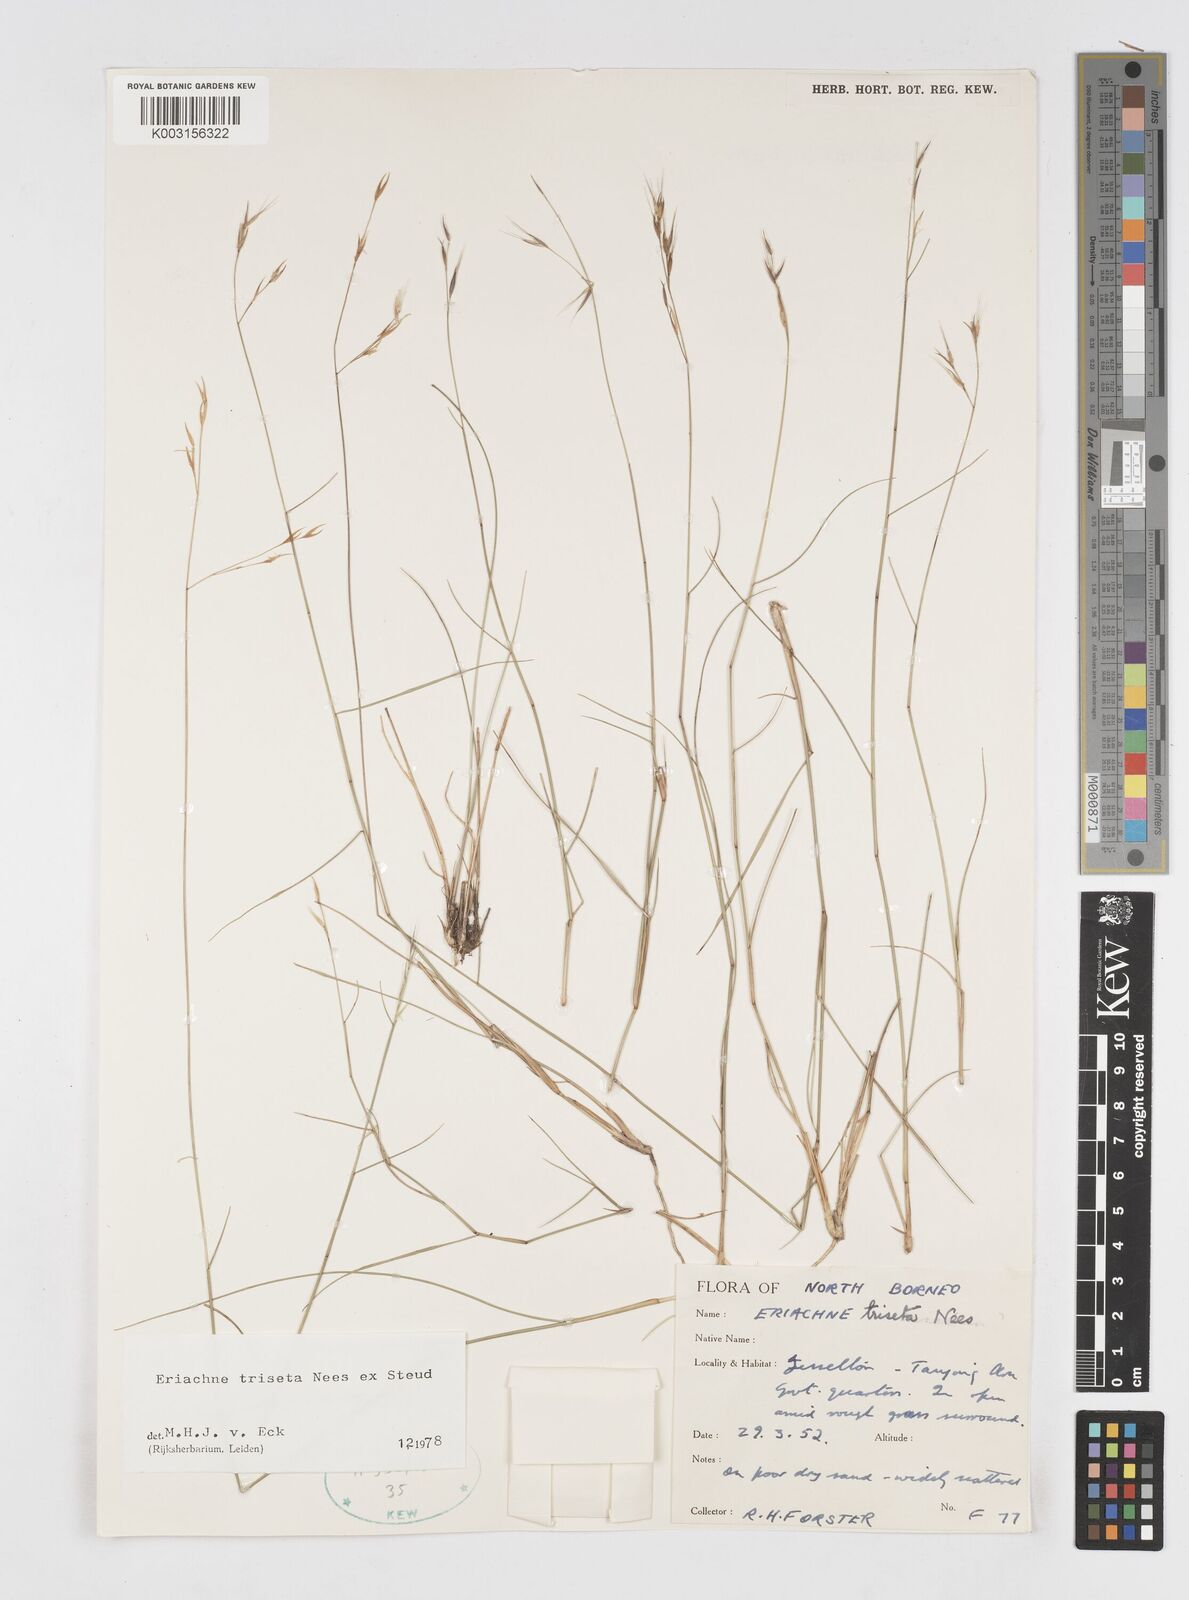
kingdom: Plantae
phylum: Tracheophyta
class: Liliopsida
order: Poales
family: Poaceae
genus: Eriachne
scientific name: Eriachne triseta
